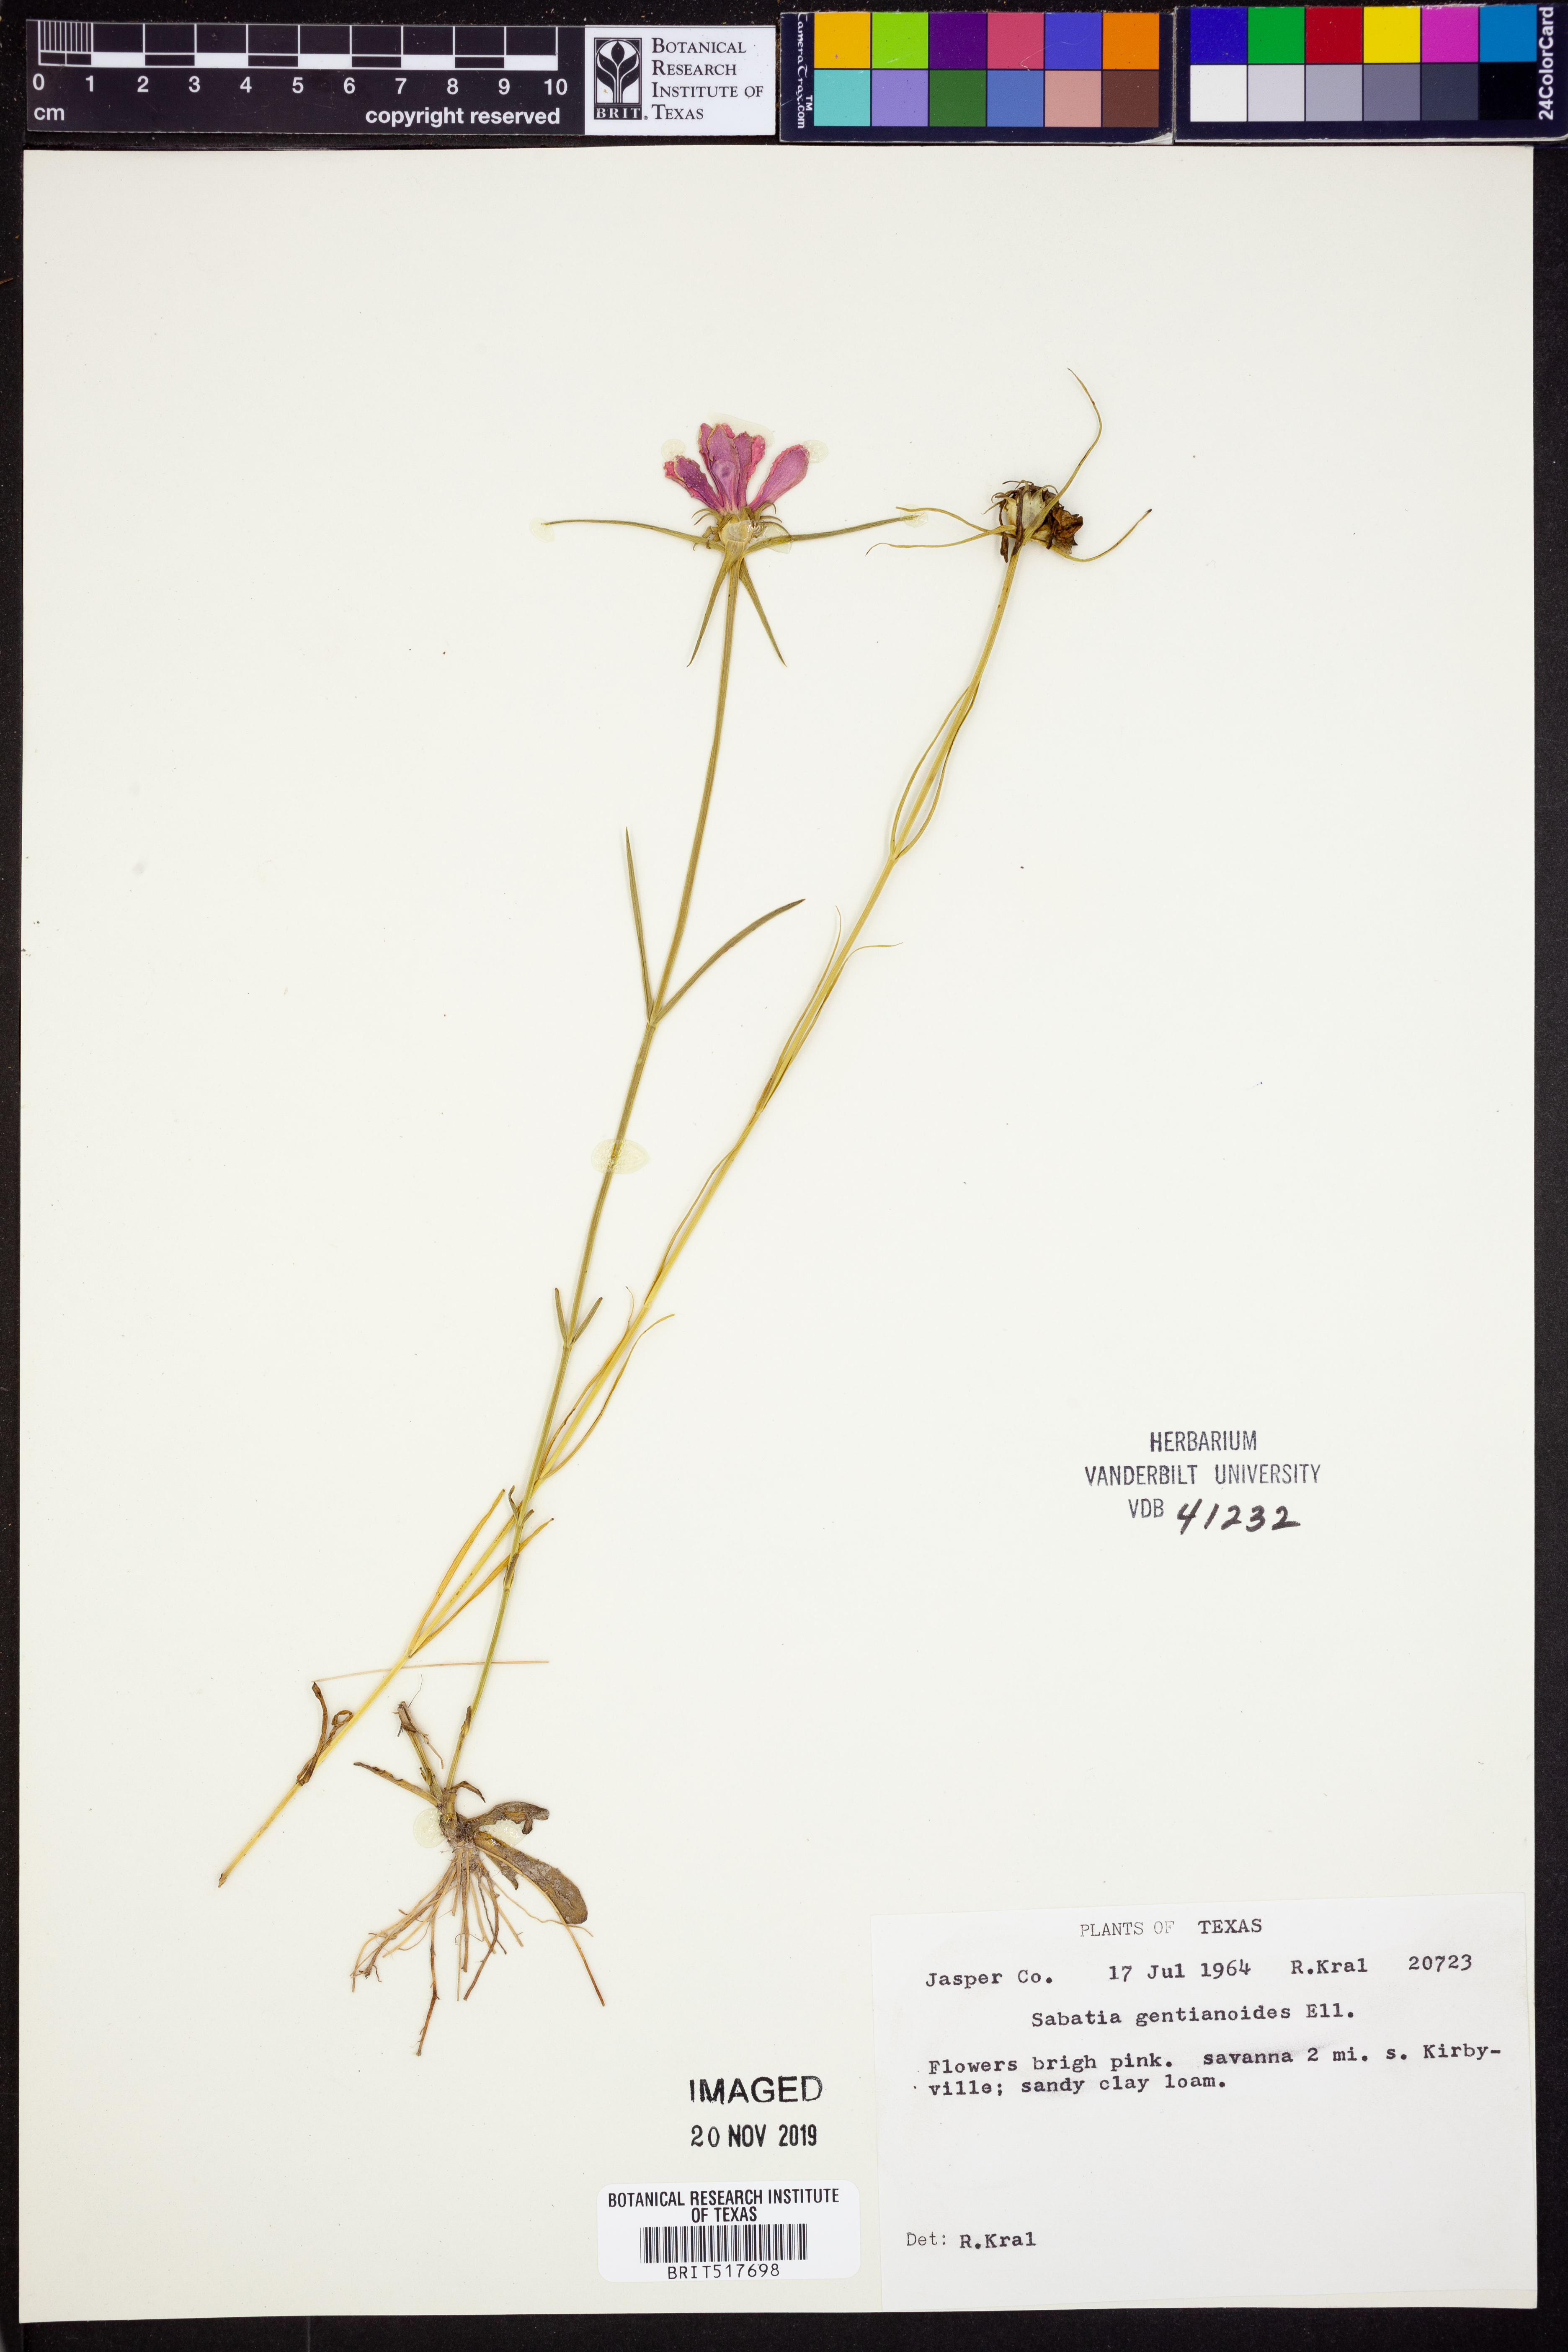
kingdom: Plantae
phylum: Tracheophyta
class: Magnoliopsida
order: Gentianales
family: Gentianaceae
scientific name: Gentianaceae
